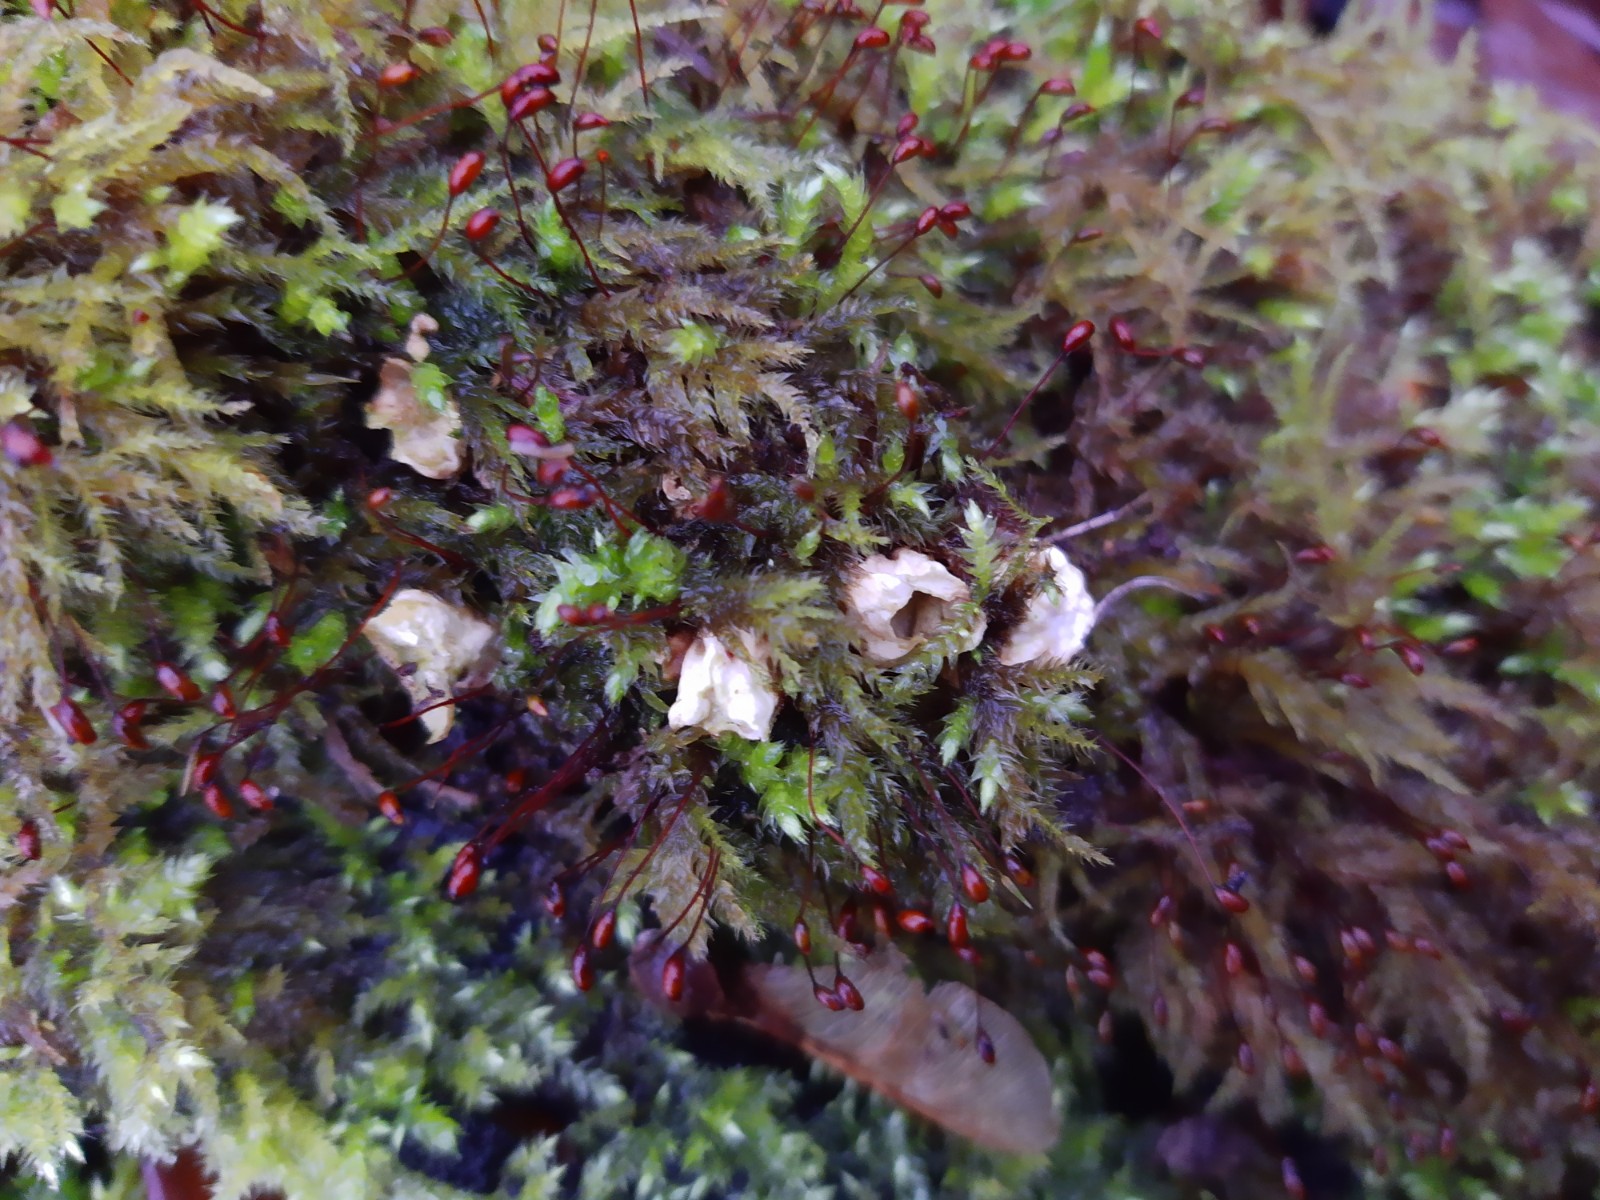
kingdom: Fungi
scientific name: Fungi
